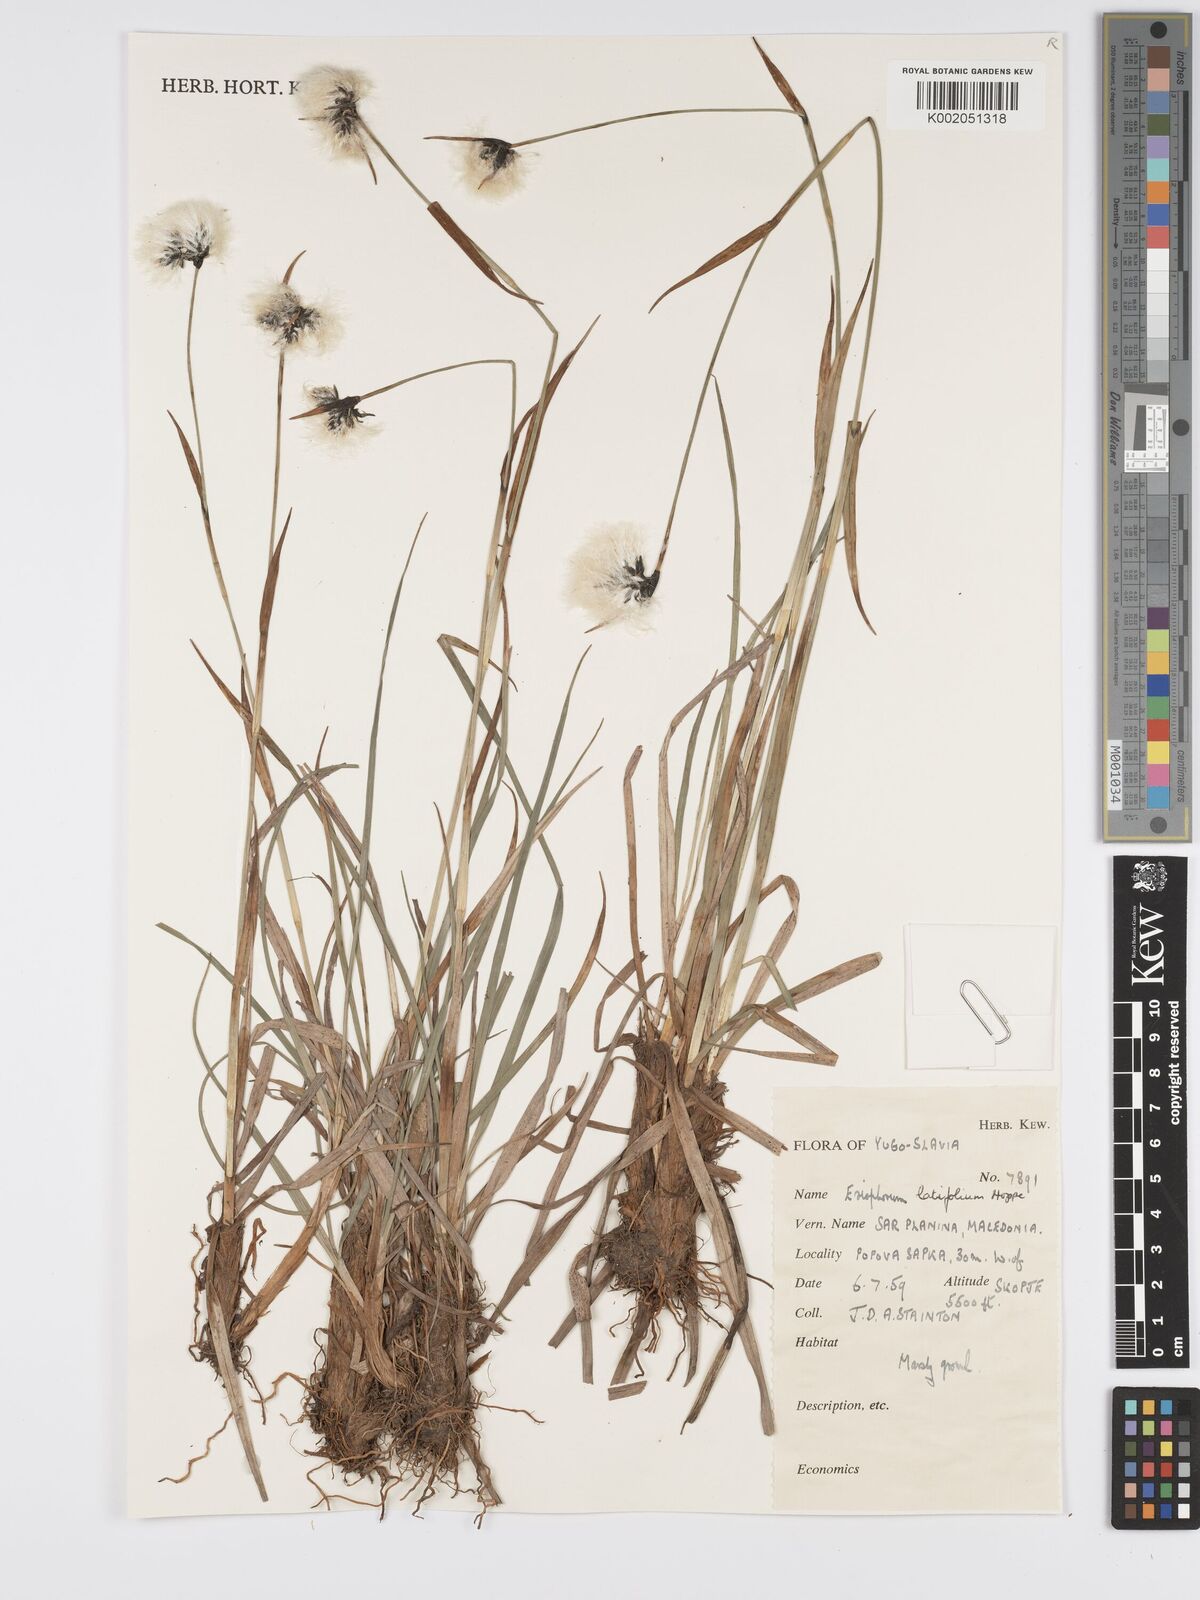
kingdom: Plantae
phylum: Tracheophyta
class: Liliopsida
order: Poales
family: Cyperaceae
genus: Eriophorum
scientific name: Eriophorum latifolium
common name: Broad-leaved cottongrass
